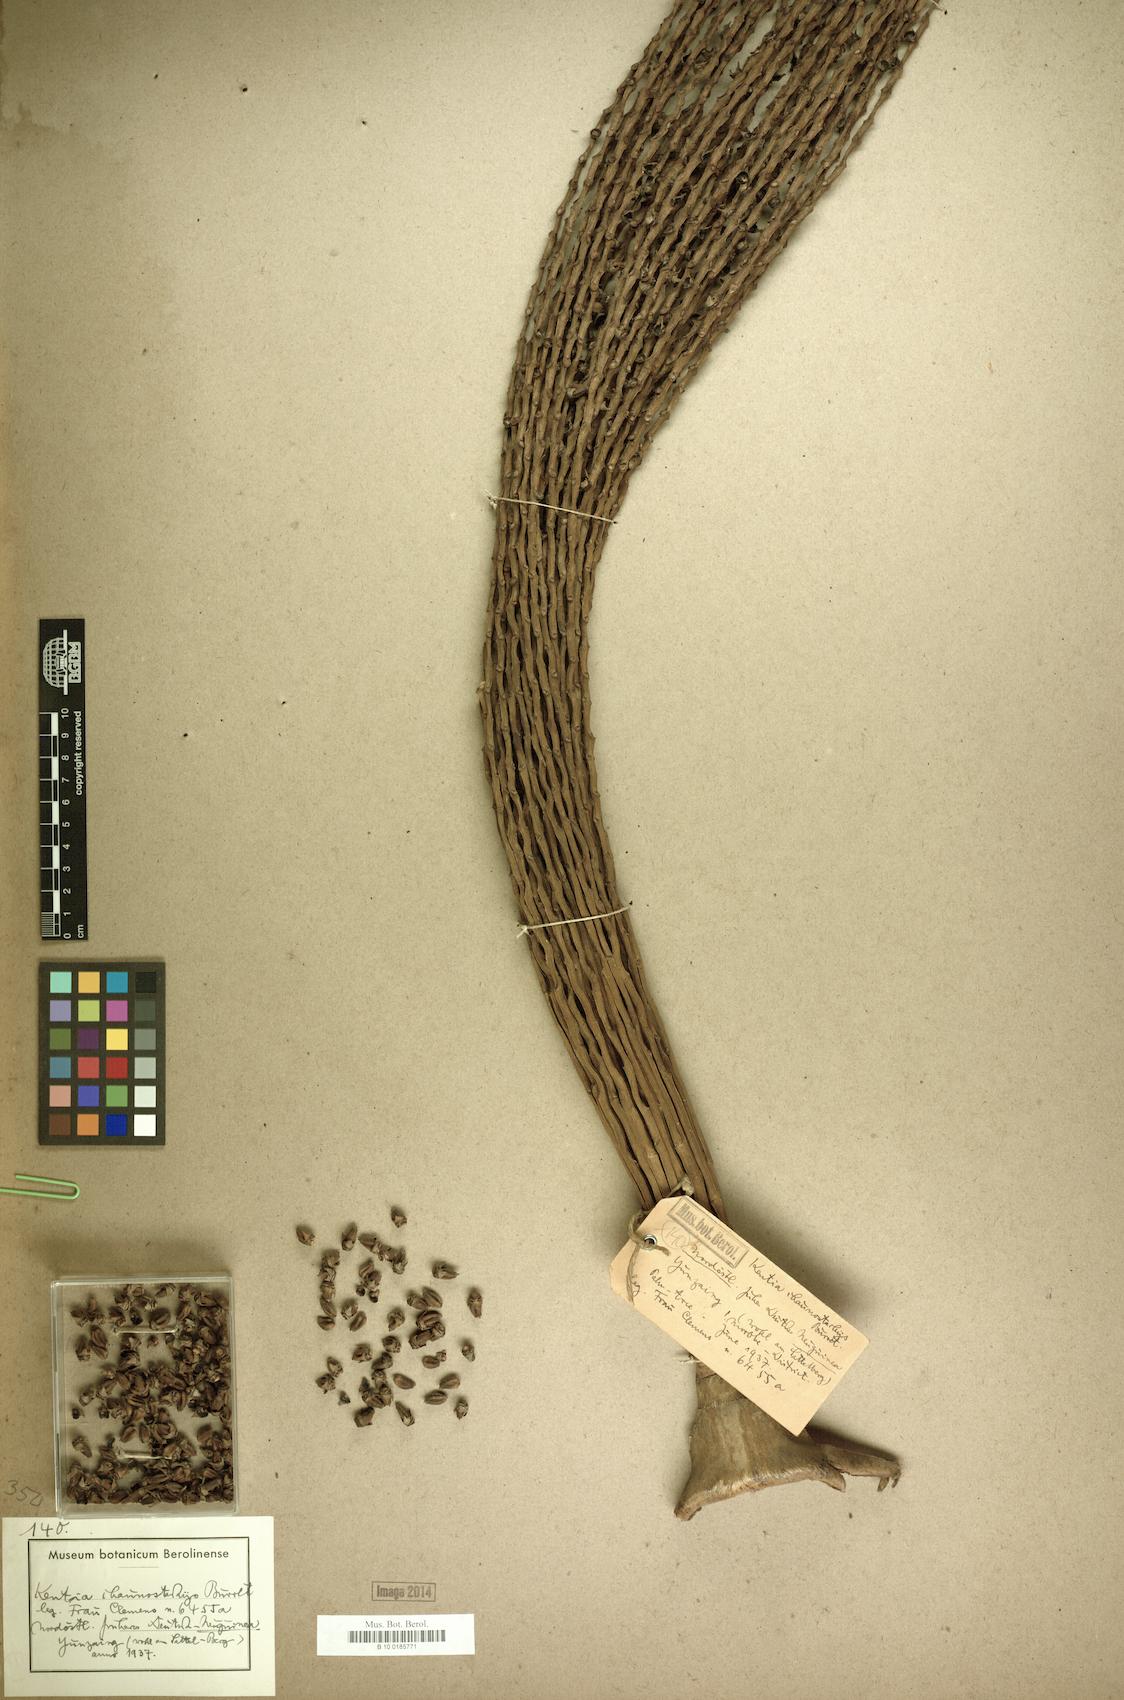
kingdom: Plantae
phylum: Tracheophyta
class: Liliopsida
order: Arecales
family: Arecaceae
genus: Hydriastele
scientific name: Hydriastele ledermanniana
